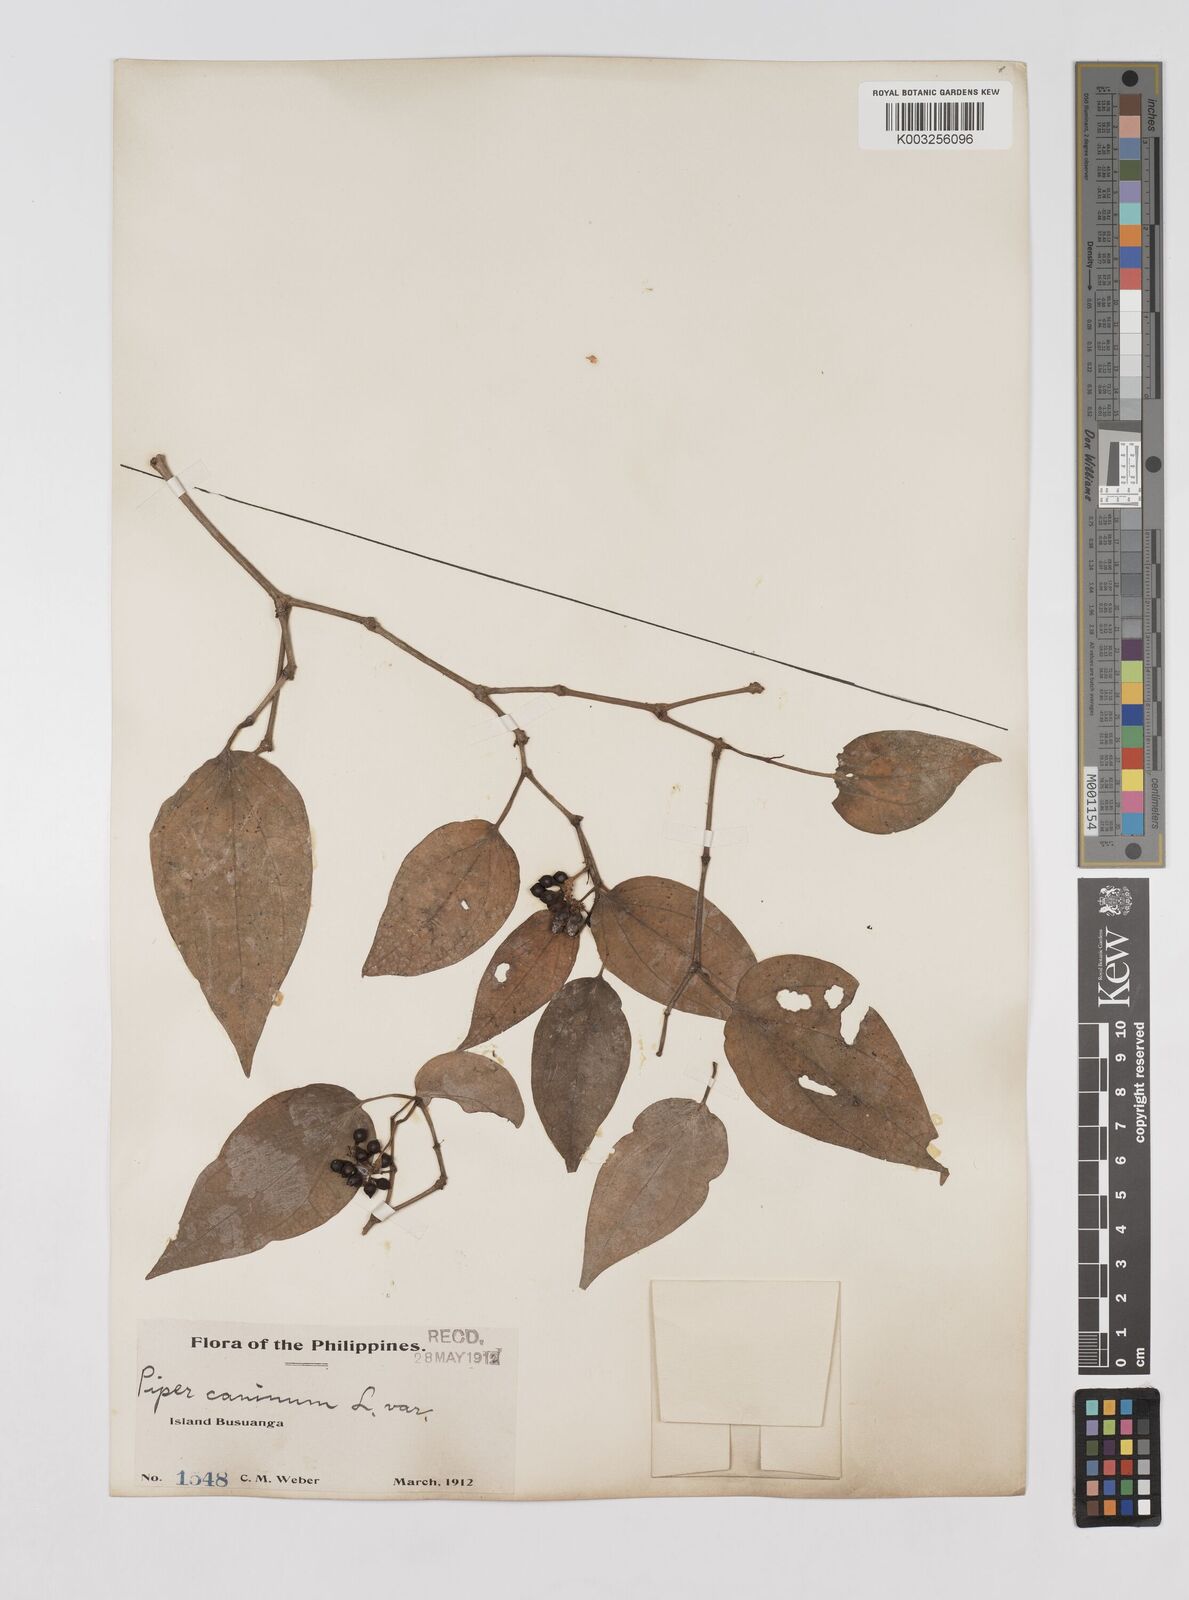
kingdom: Plantae
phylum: Tracheophyta
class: Magnoliopsida
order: Piperales
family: Piperaceae
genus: Piper
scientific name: Piper lanatum
